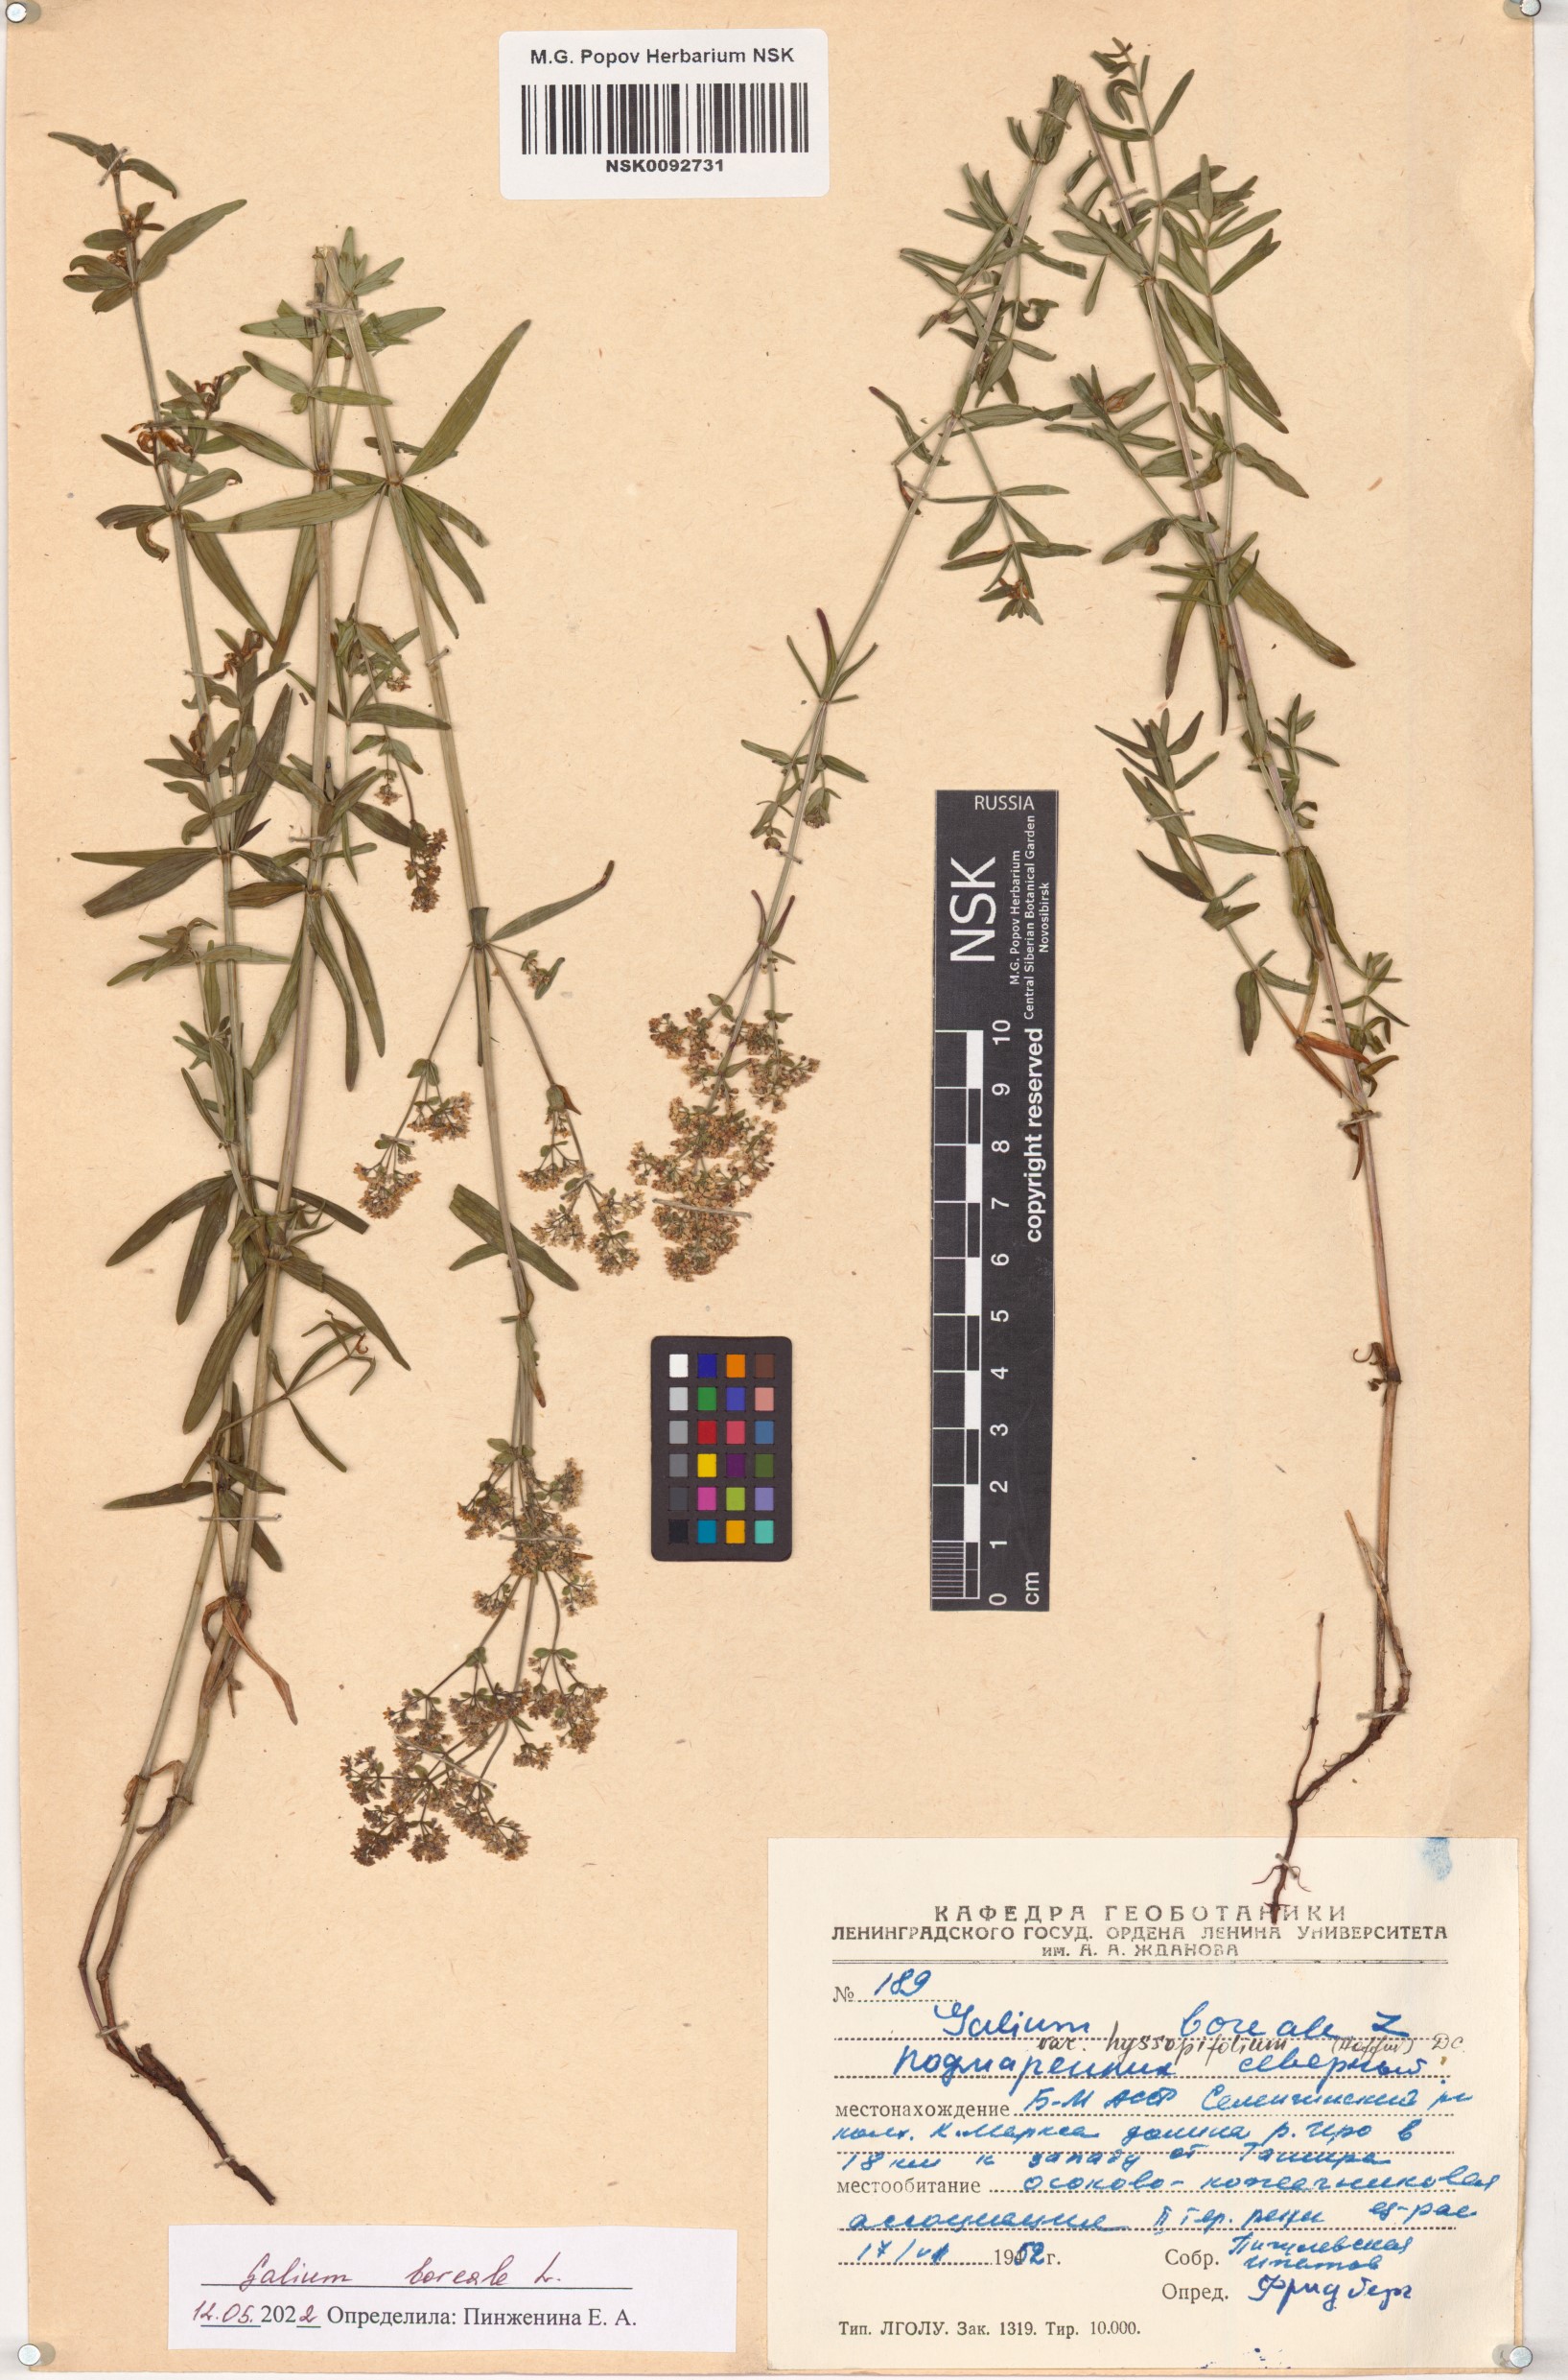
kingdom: Plantae
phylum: Tracheophyta
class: Magnoliopsida
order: Gentianales
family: Rubiaceae
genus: Galium
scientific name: Galium boreale
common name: Northern bedstraw
